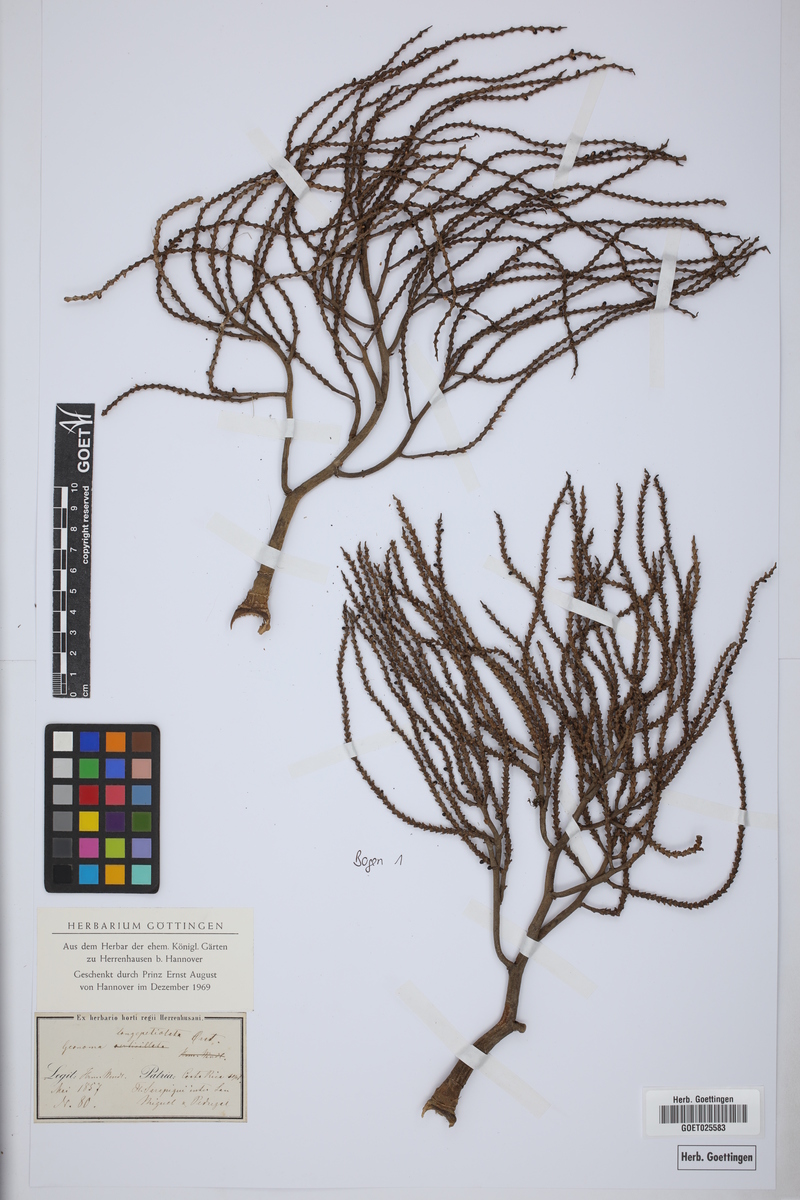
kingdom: Plantae
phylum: Tracheophyta
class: Liliopsida
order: Arecales
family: Arecaceae
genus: Geonoma
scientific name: Geonoma deversa
